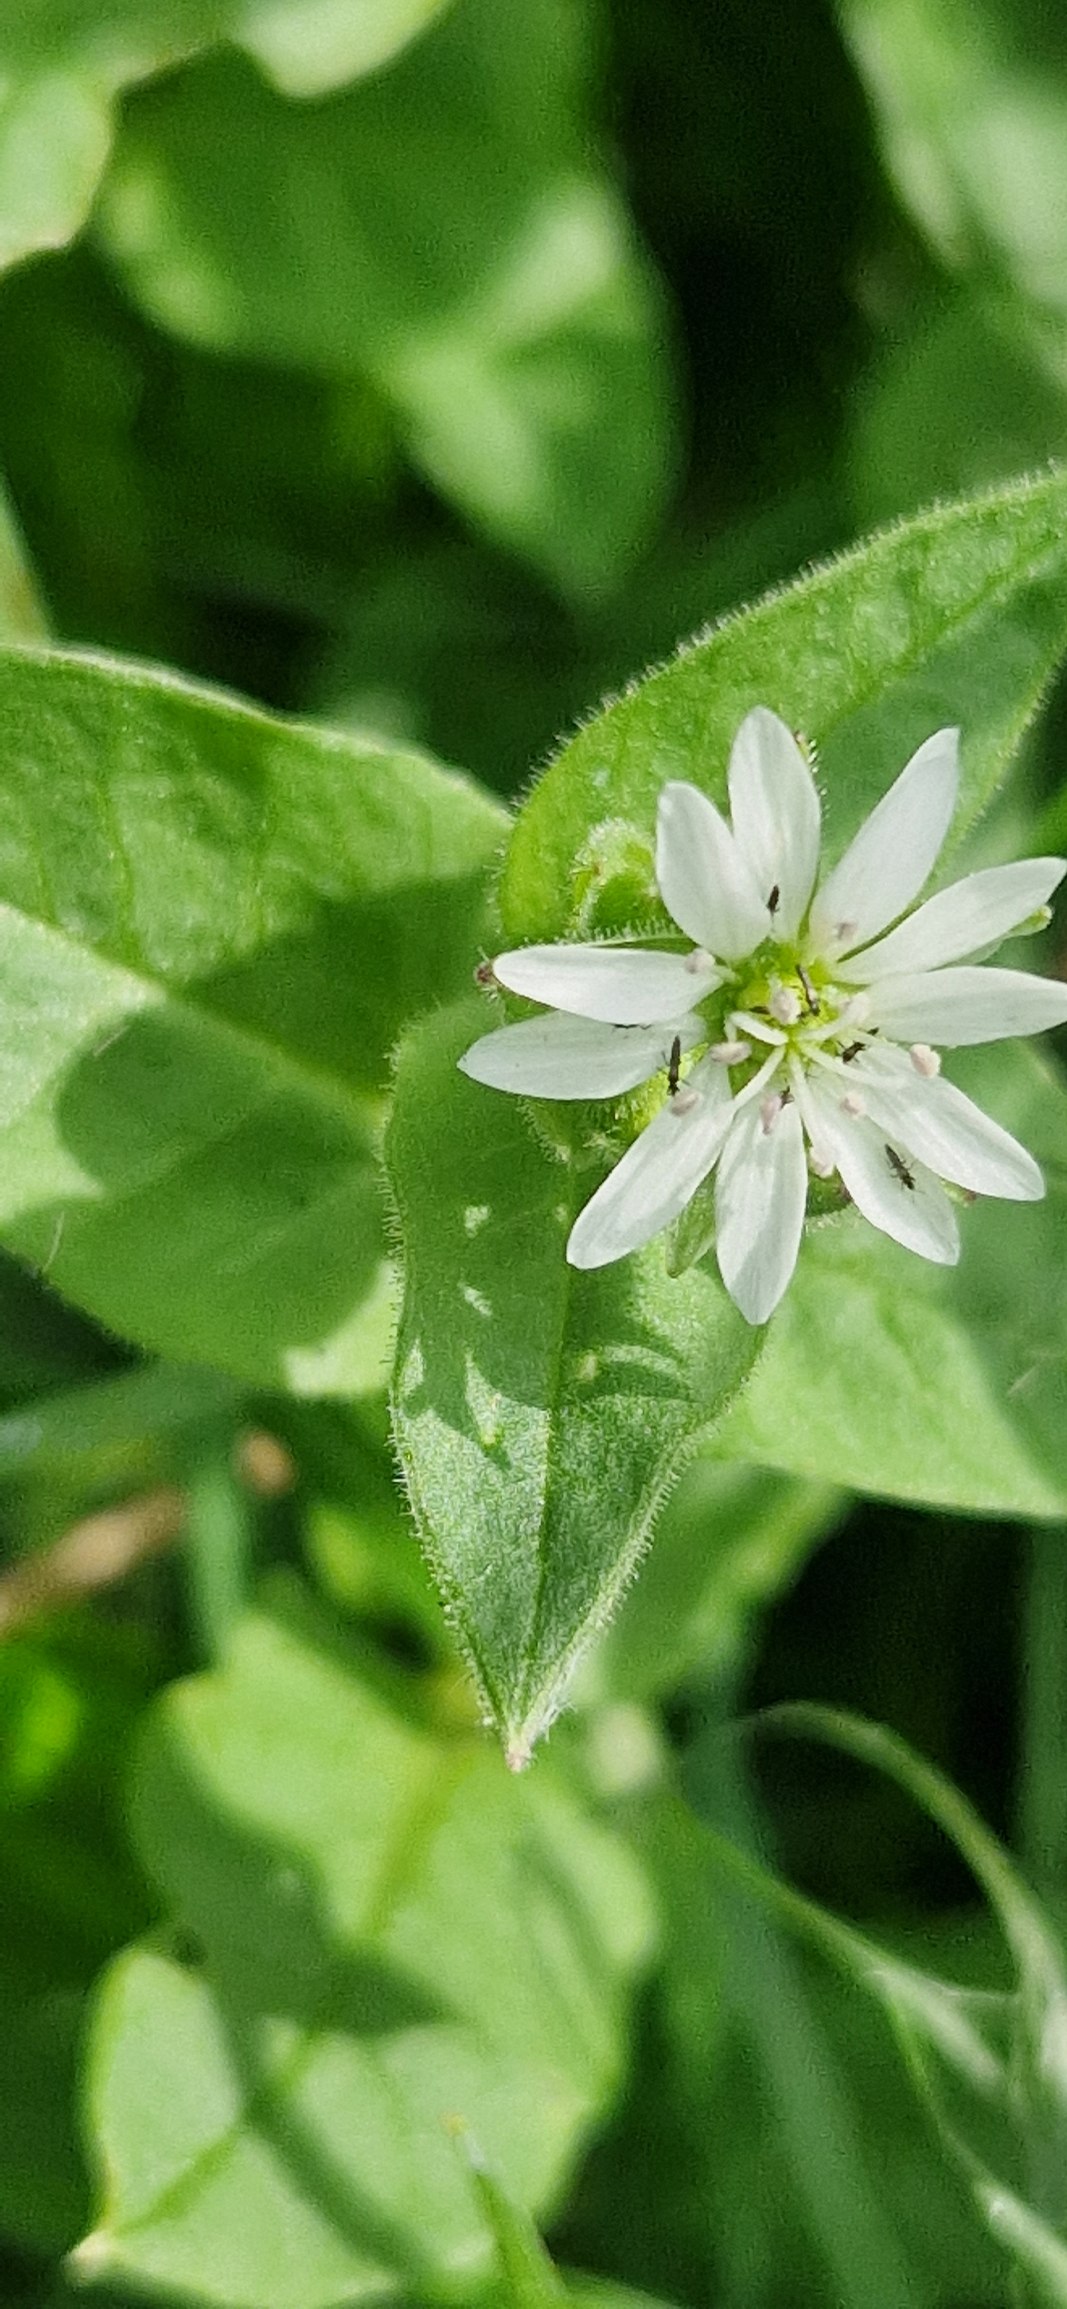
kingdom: Plantae
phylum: Tracheophyta
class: Magnoliopsida
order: Caryophyllales
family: Caryophyllaceae
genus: Stellaria
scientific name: Stellaria aquatica
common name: Kløvkrone
